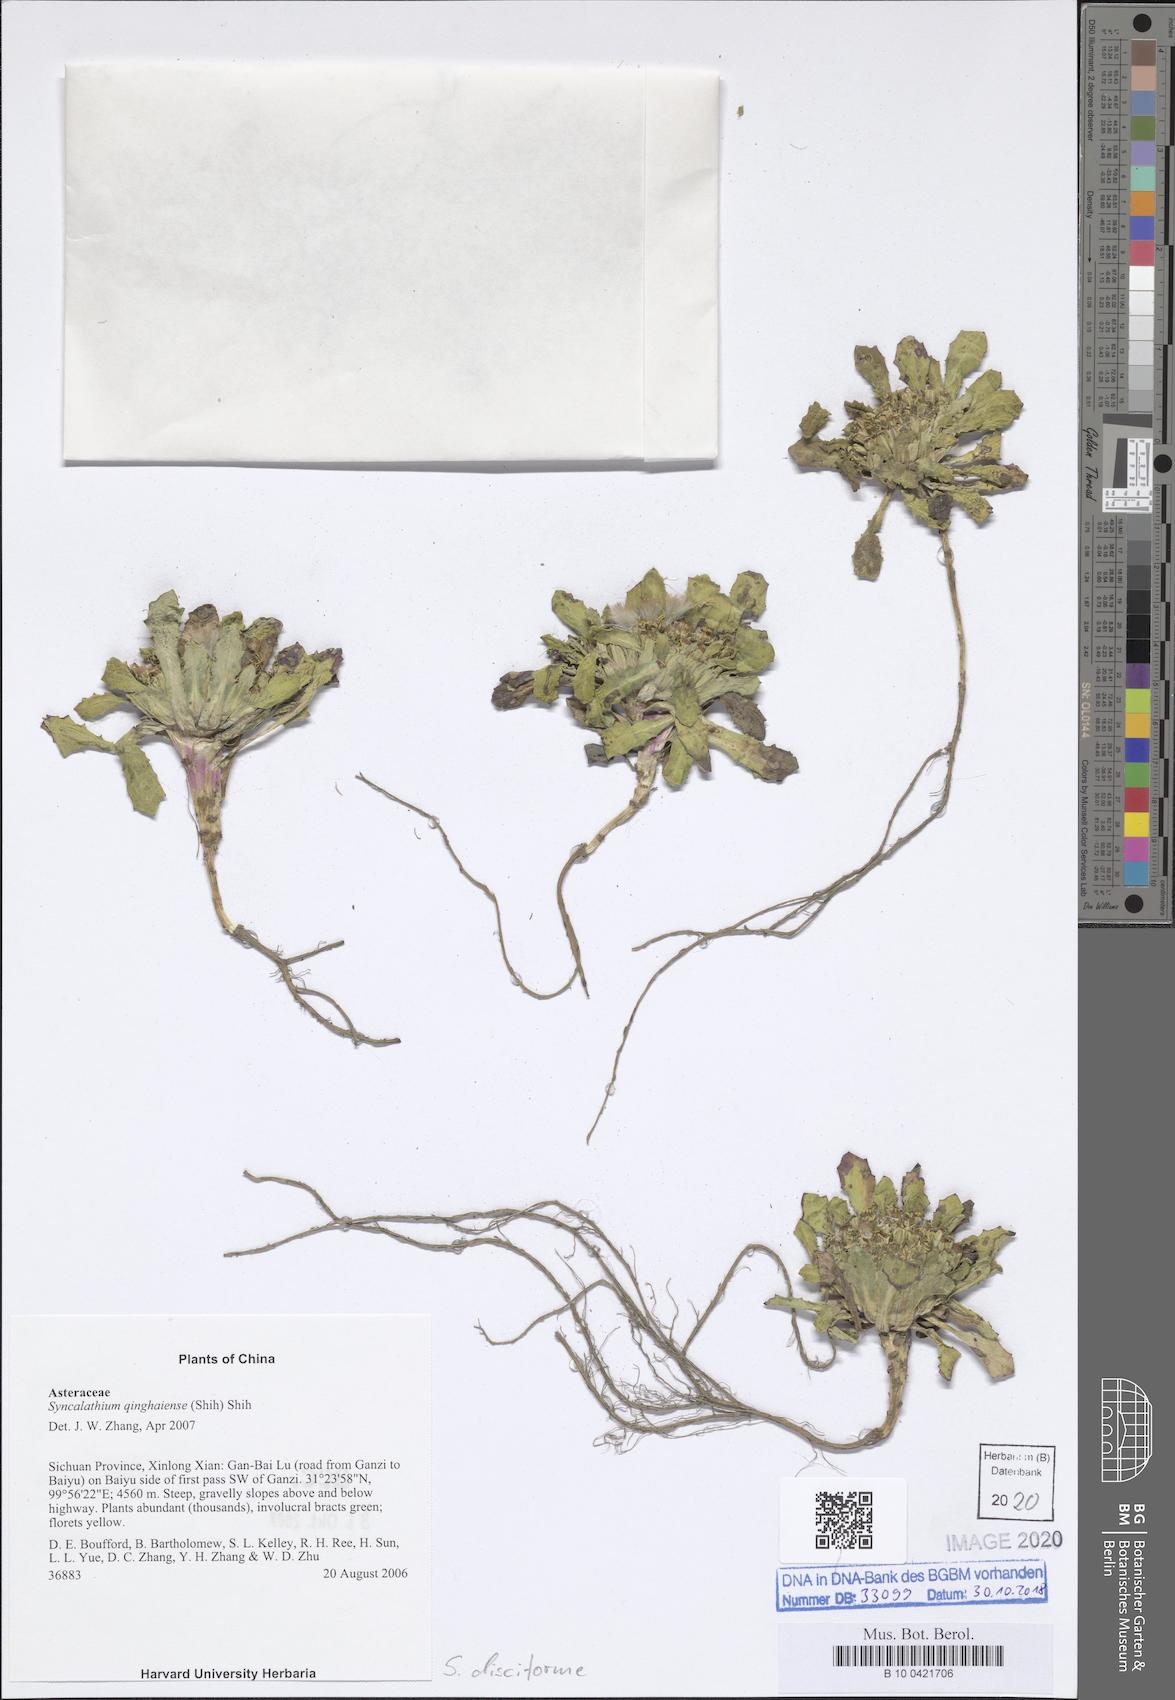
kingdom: Plantae
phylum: Tracheophyta
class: Magnoliopsida
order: Asterales
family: Asteraceae
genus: Syncalathium
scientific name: Syncalathium disciforme
